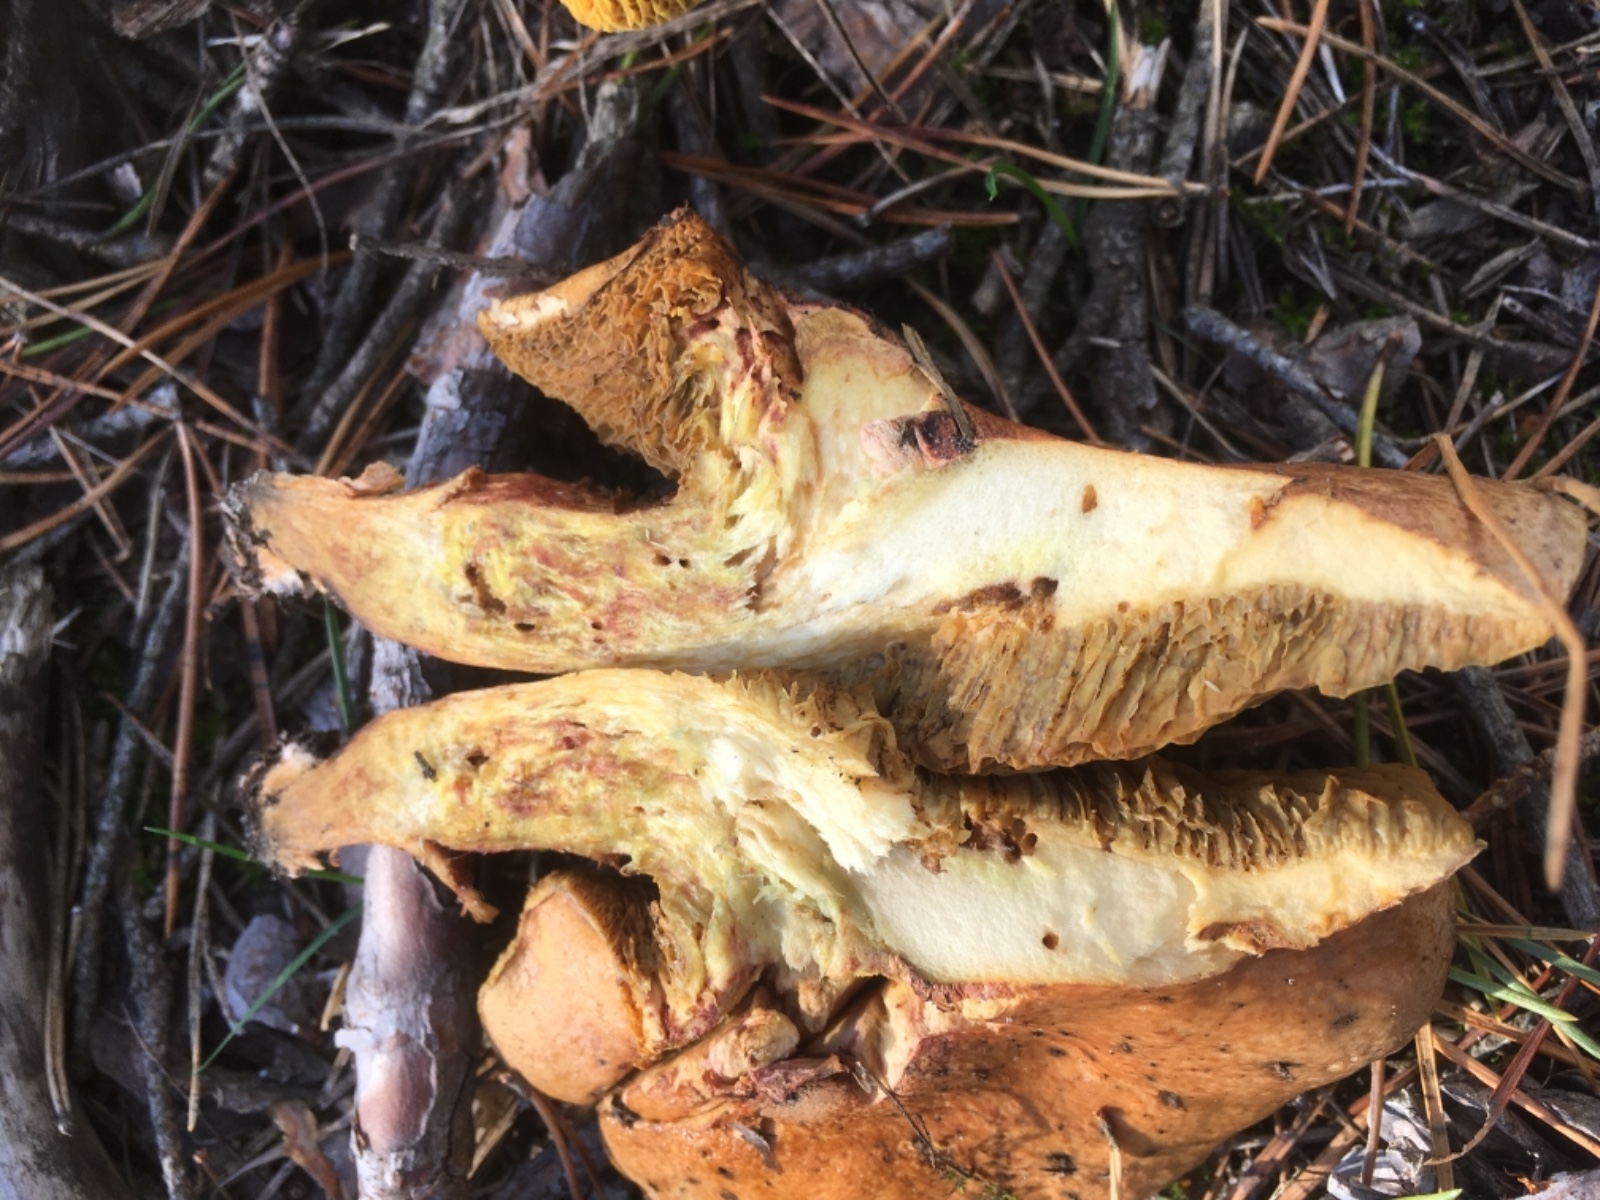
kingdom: Fungi
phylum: Basidiomycota
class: Agaricomycetes
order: Boletales
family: Suillaceae
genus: Suillus
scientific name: Suillus bovinus
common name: grovporet slimrørhat
